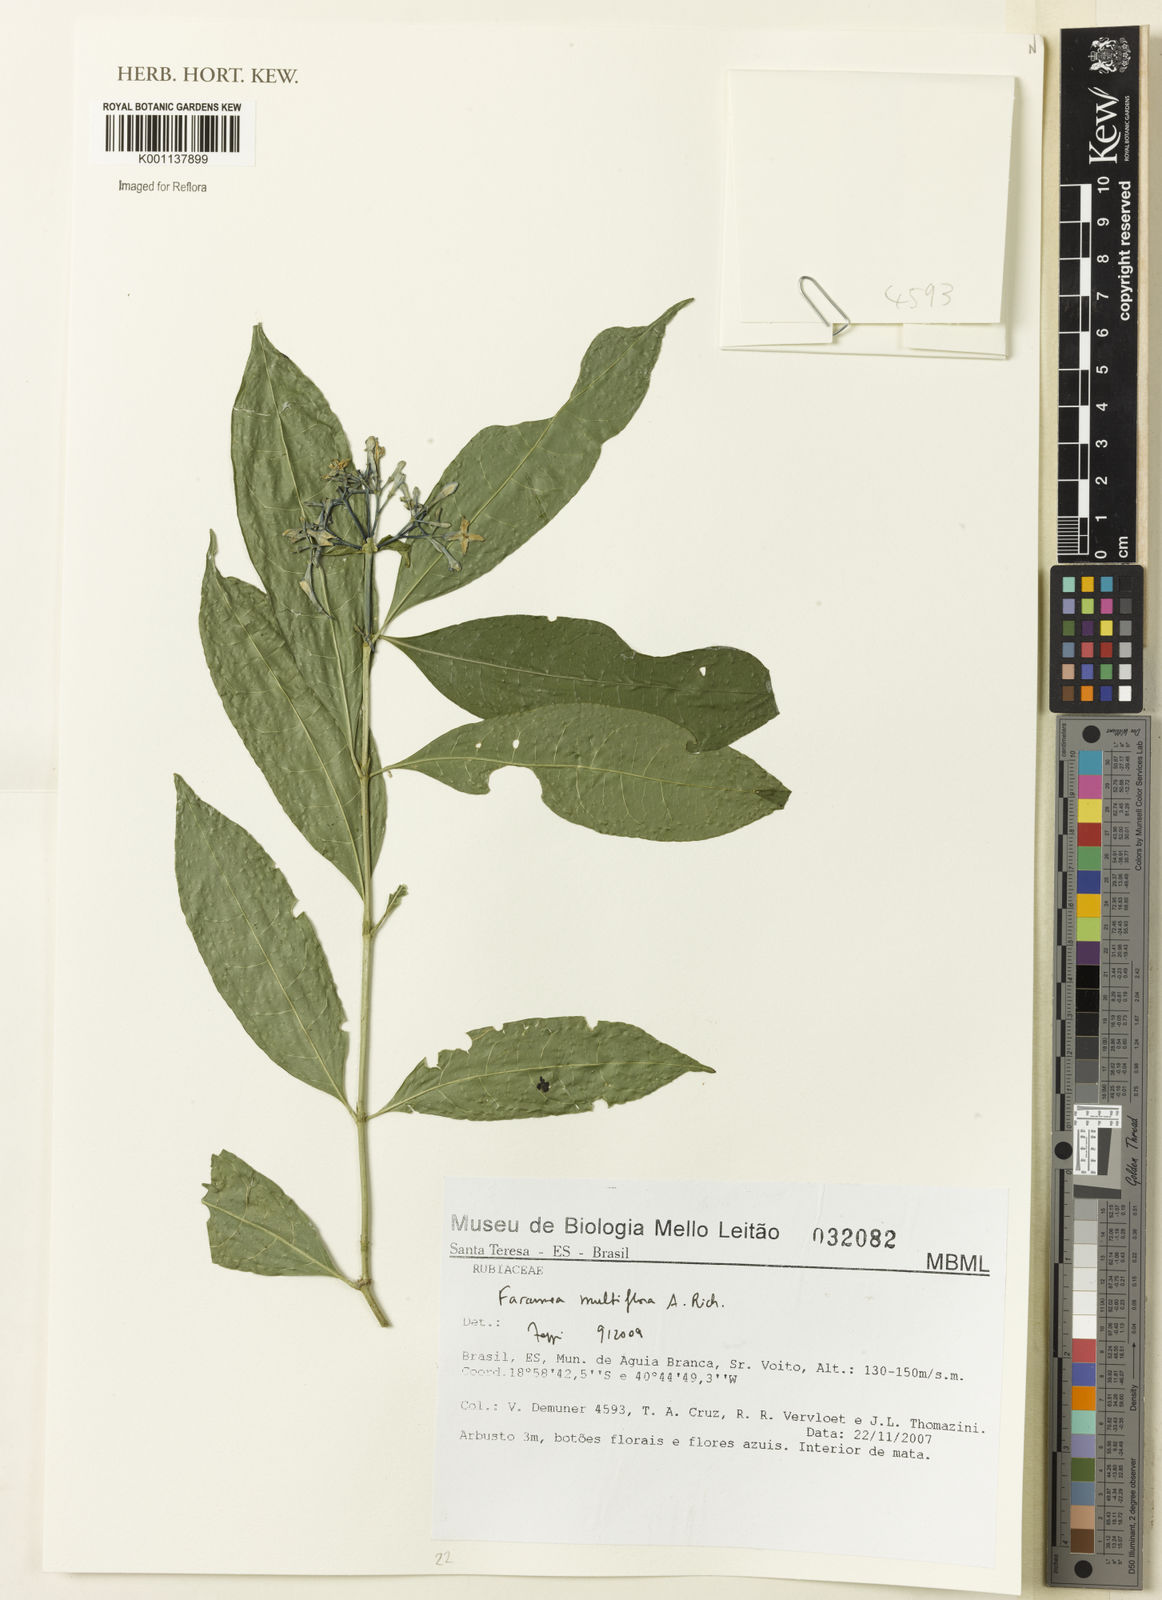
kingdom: Plantae
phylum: Tracheophyta
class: Magnoliopsida
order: Gentianales
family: Rubiaceae
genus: Faramea
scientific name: Faramea multiflora
